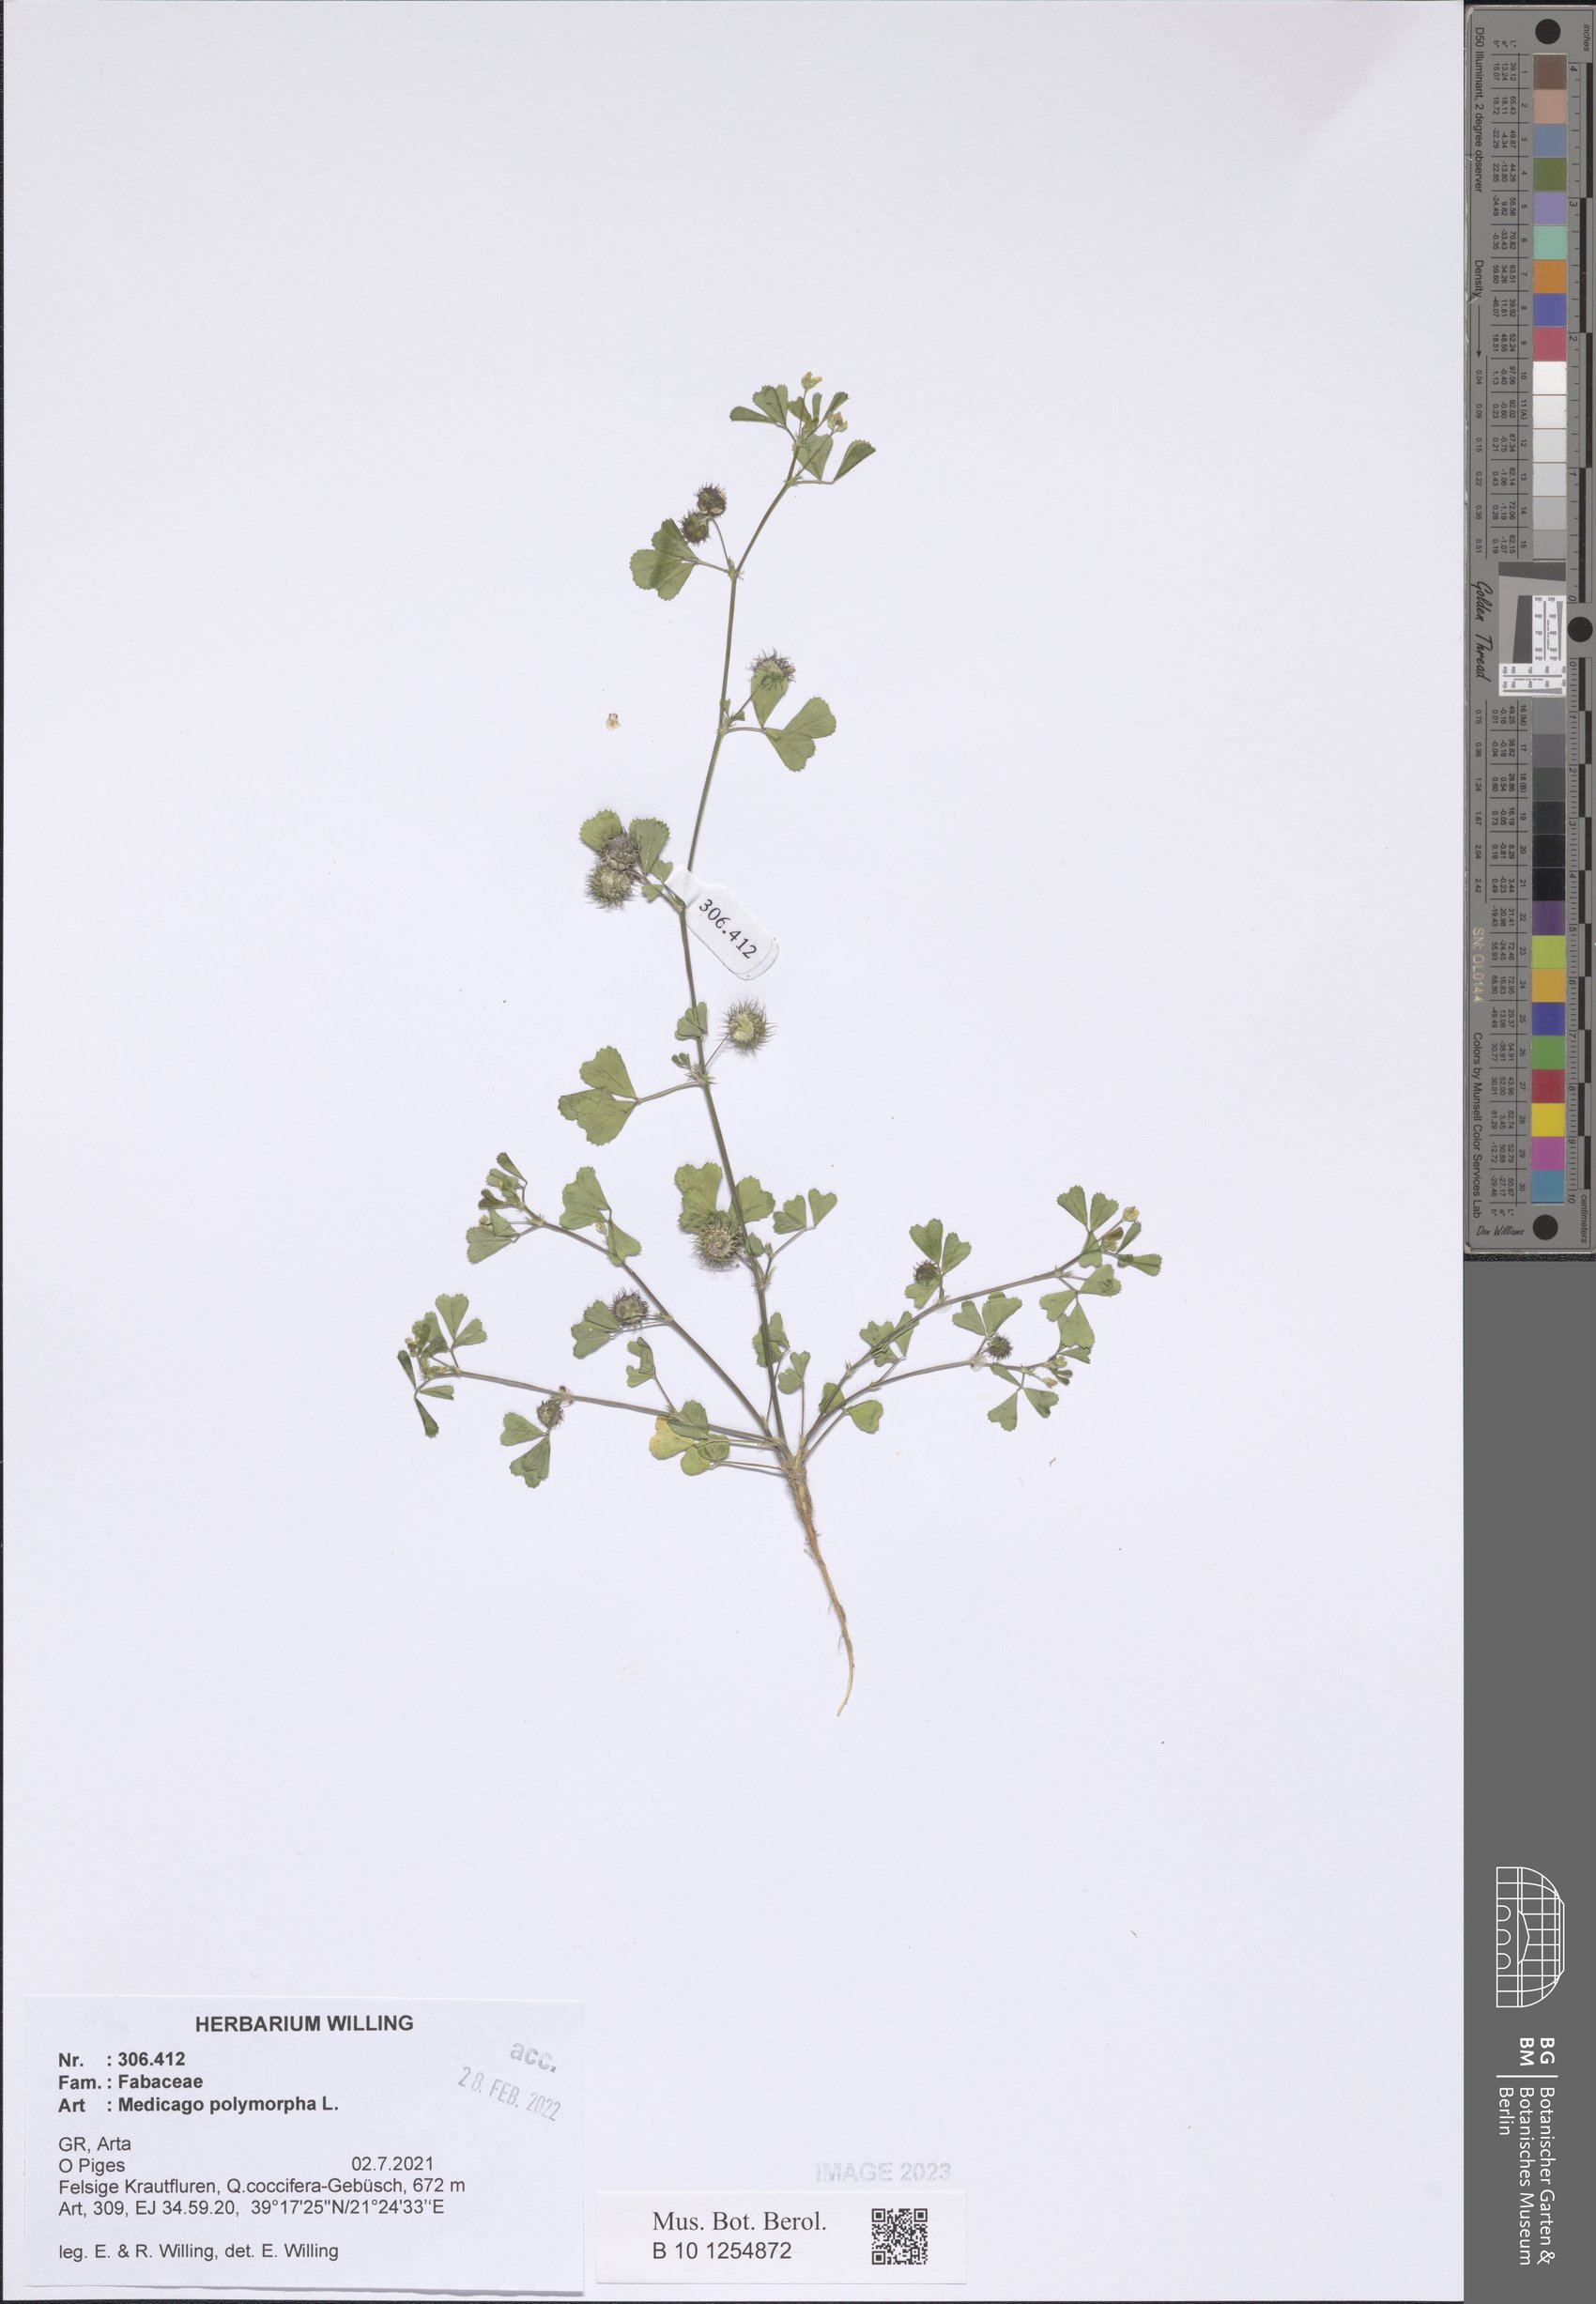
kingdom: Plantae
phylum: Tracheophyta
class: Magnoliopsida
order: Fabales
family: Fabaceae
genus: Medicago
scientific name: Medicago polymorpha
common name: Burclover
